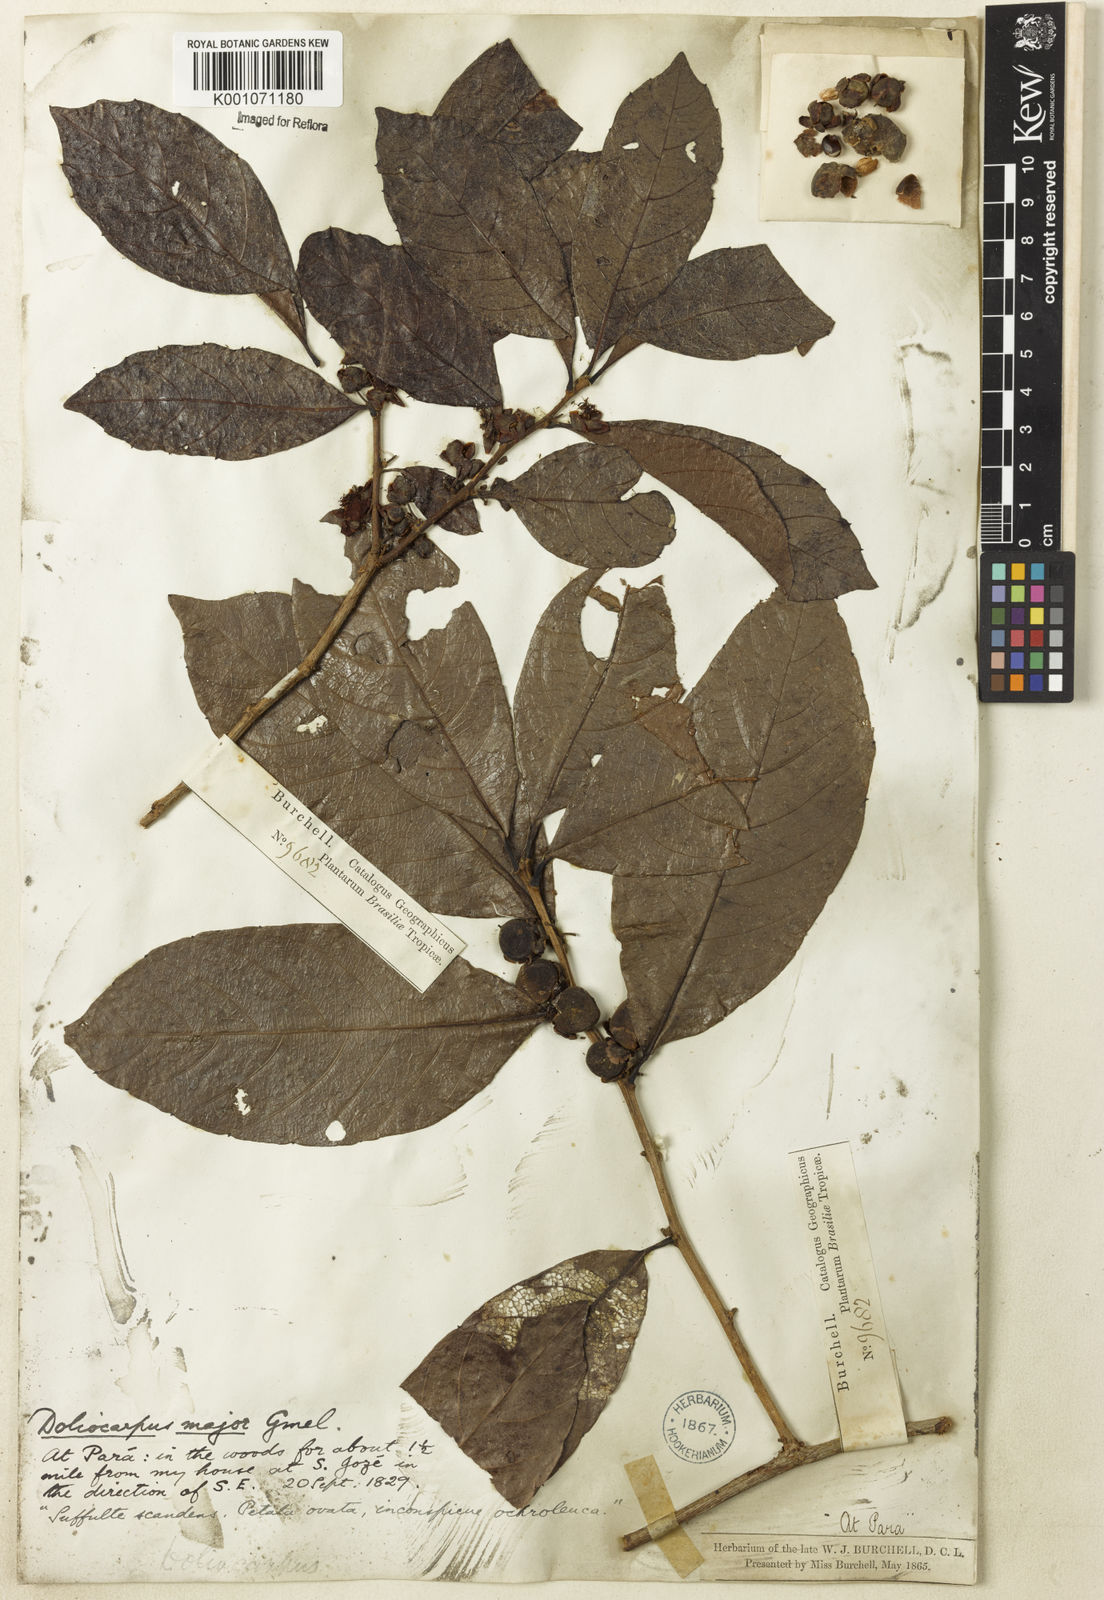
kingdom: Plantae
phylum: Tracheophyta
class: Magnoliopsida
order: Dilleniales
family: Dilleniaceae
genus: Doliocarpus
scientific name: Doliocarpus major
